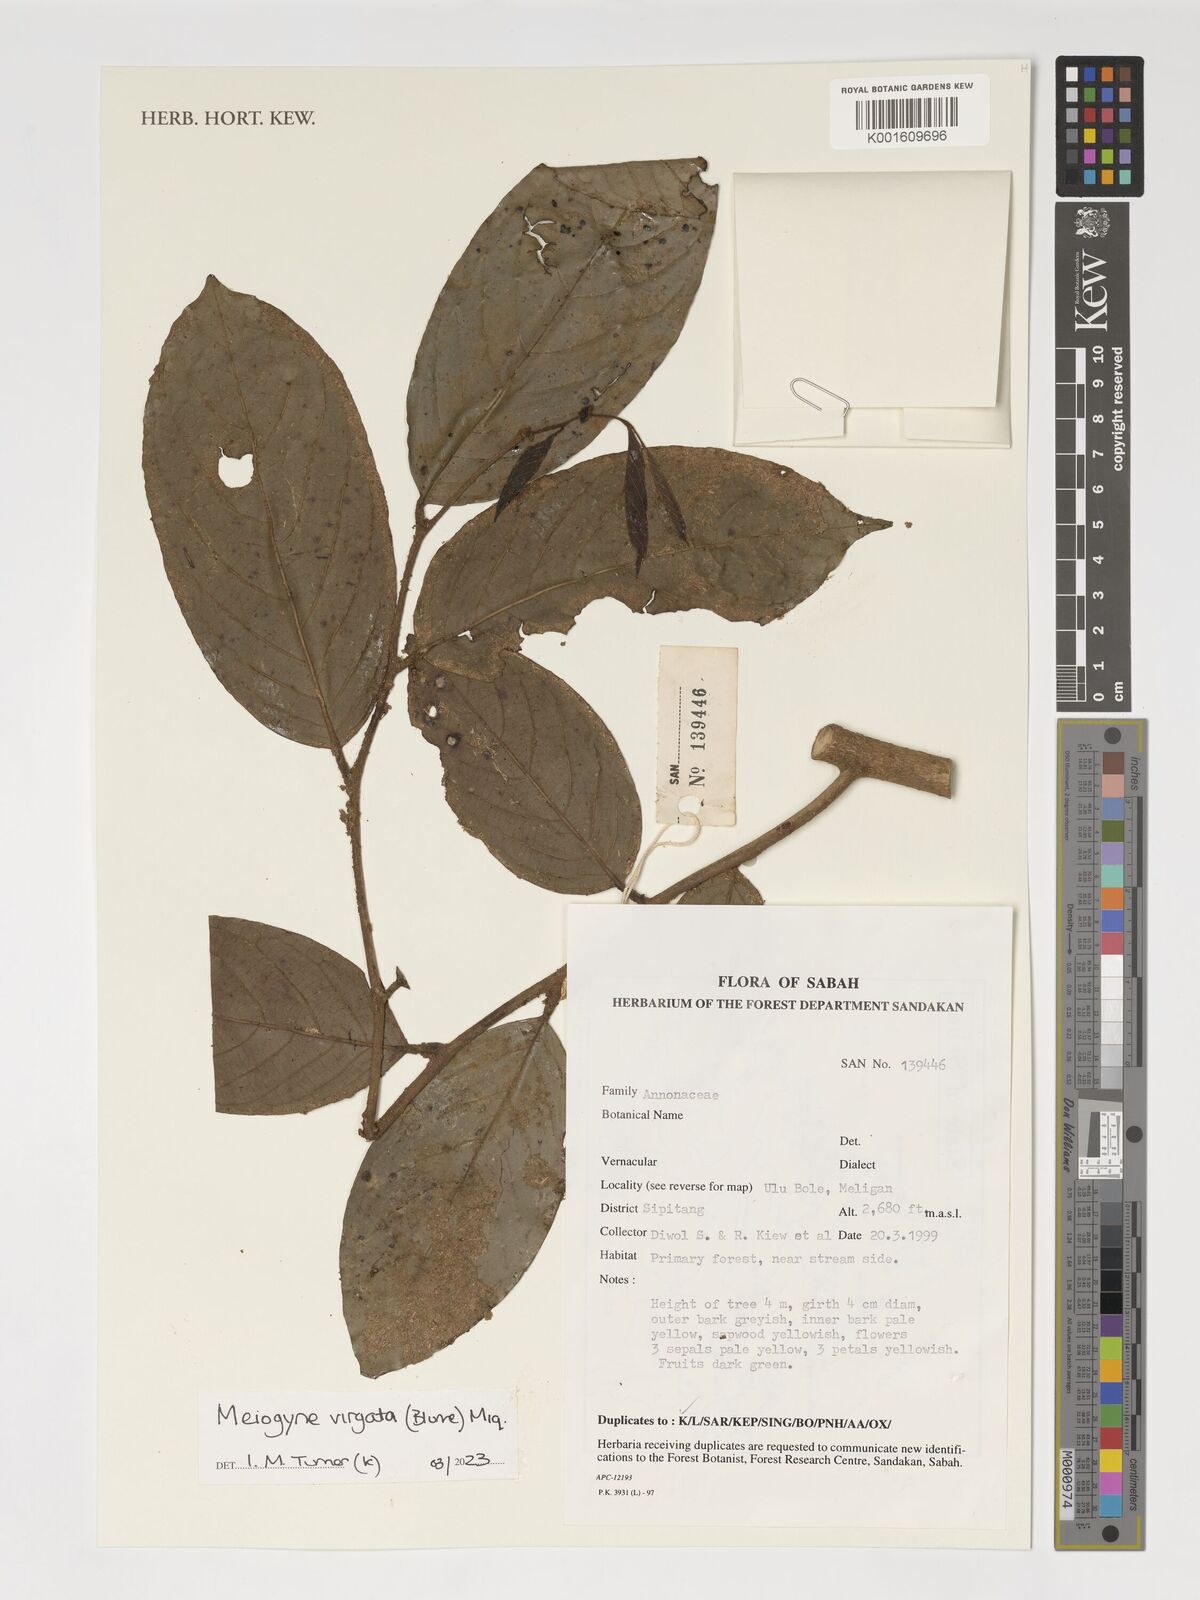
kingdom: Plantae
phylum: Tracheophyta
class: Magnoliopsida
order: Magnoliales
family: Annonaceae
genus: Meiogyne
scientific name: Meiogyne virgata
